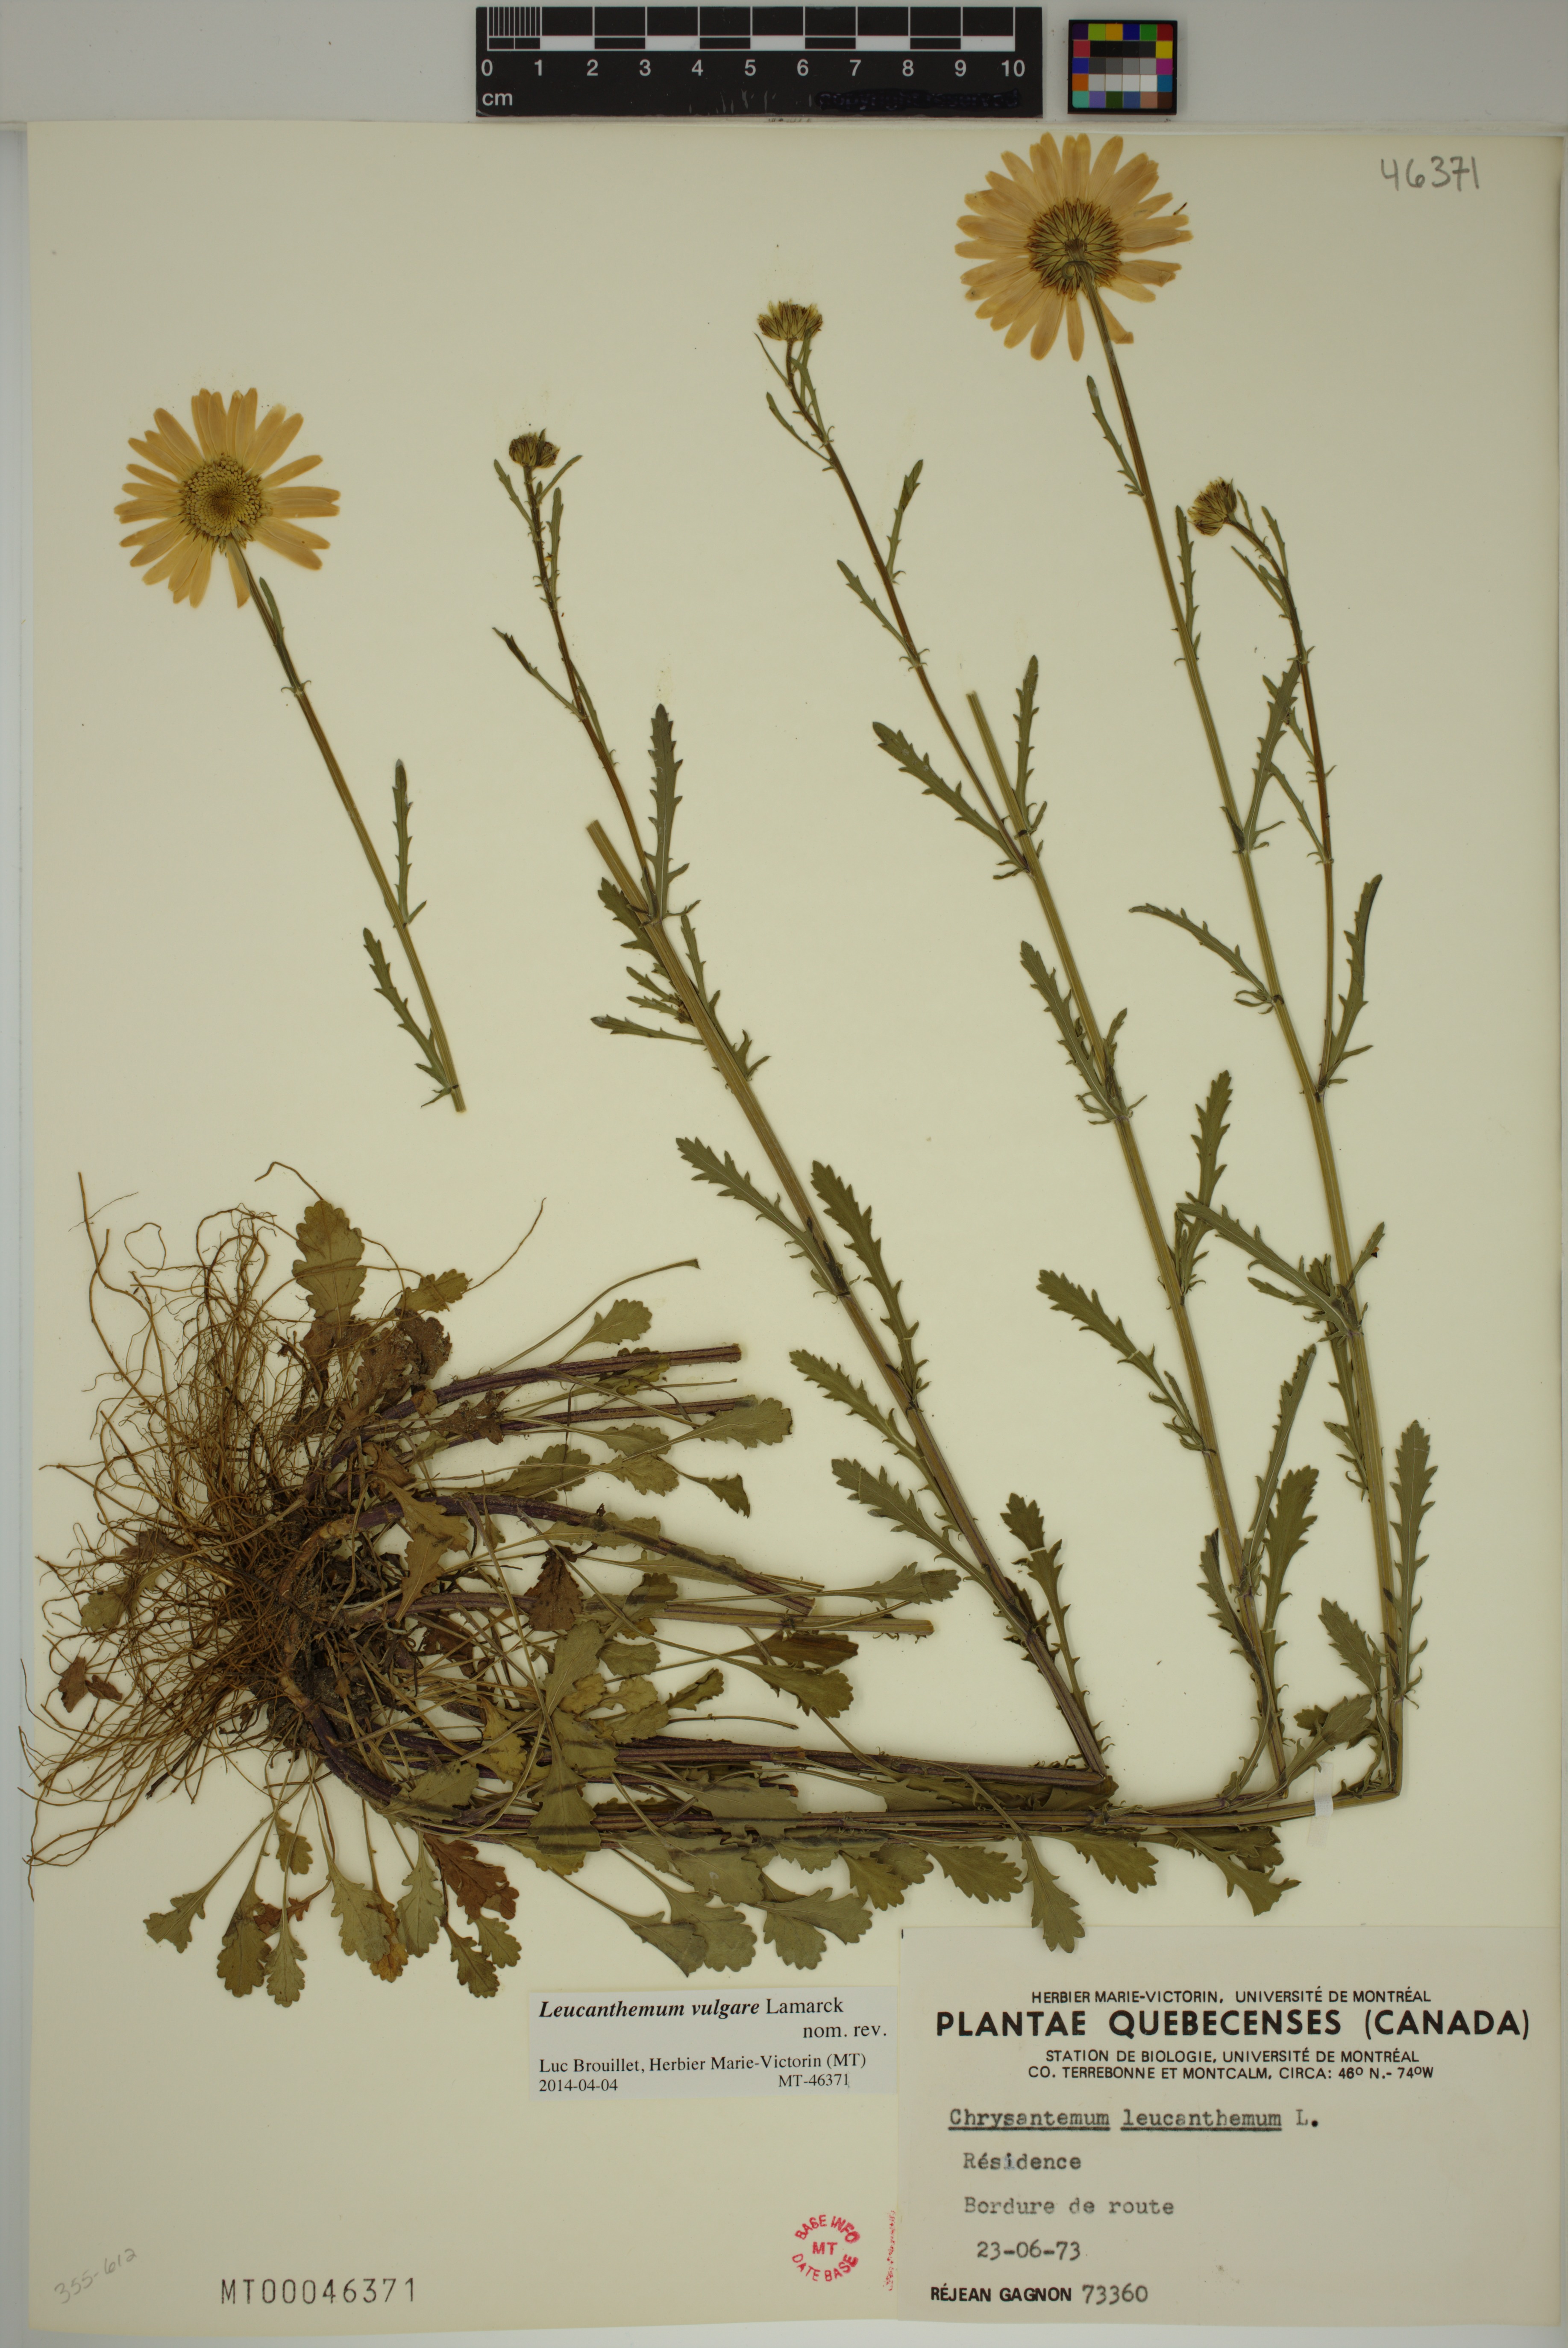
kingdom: Plantae
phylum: Tracheophyta
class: Magnoliopsida
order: Asterales
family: Asteraceae
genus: Leucanthemum
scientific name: Leucanthemum vulgare
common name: Oxeye daisy
